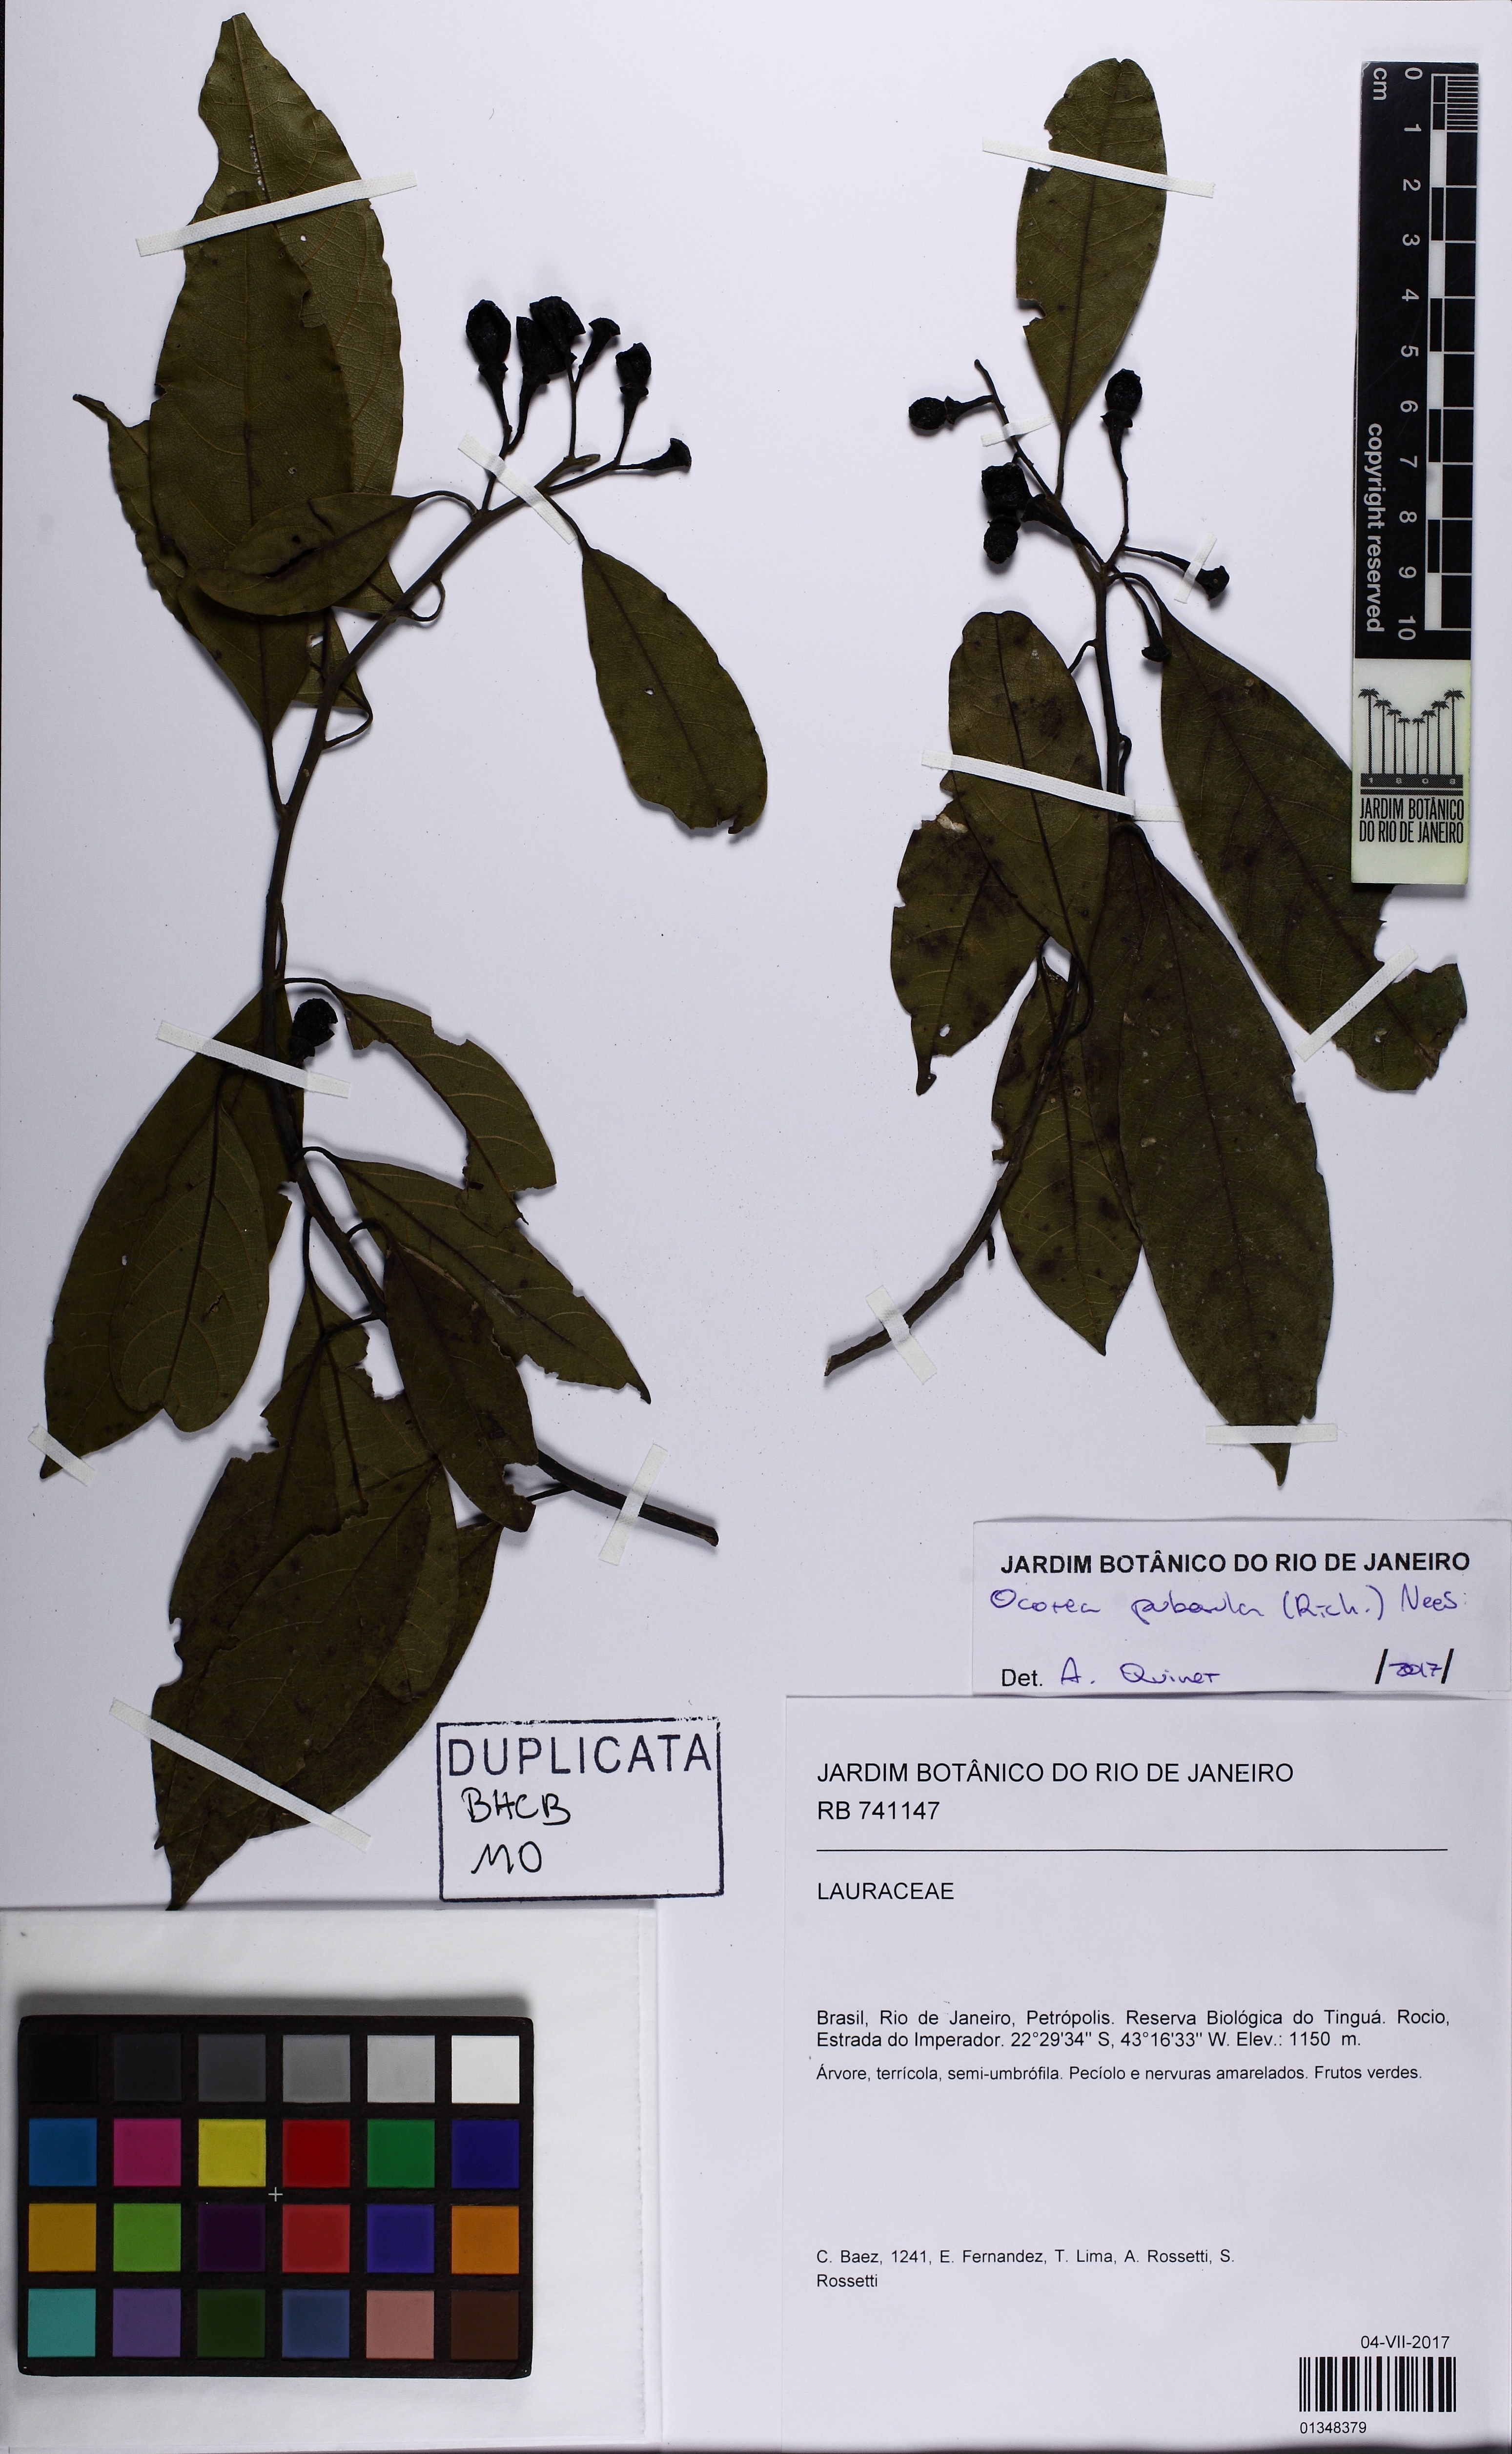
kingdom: Plantae
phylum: Tracheophyta
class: Magnoliopsida
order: Laurales
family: Lauraceae
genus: Ocotea
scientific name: Ocotea puberula
